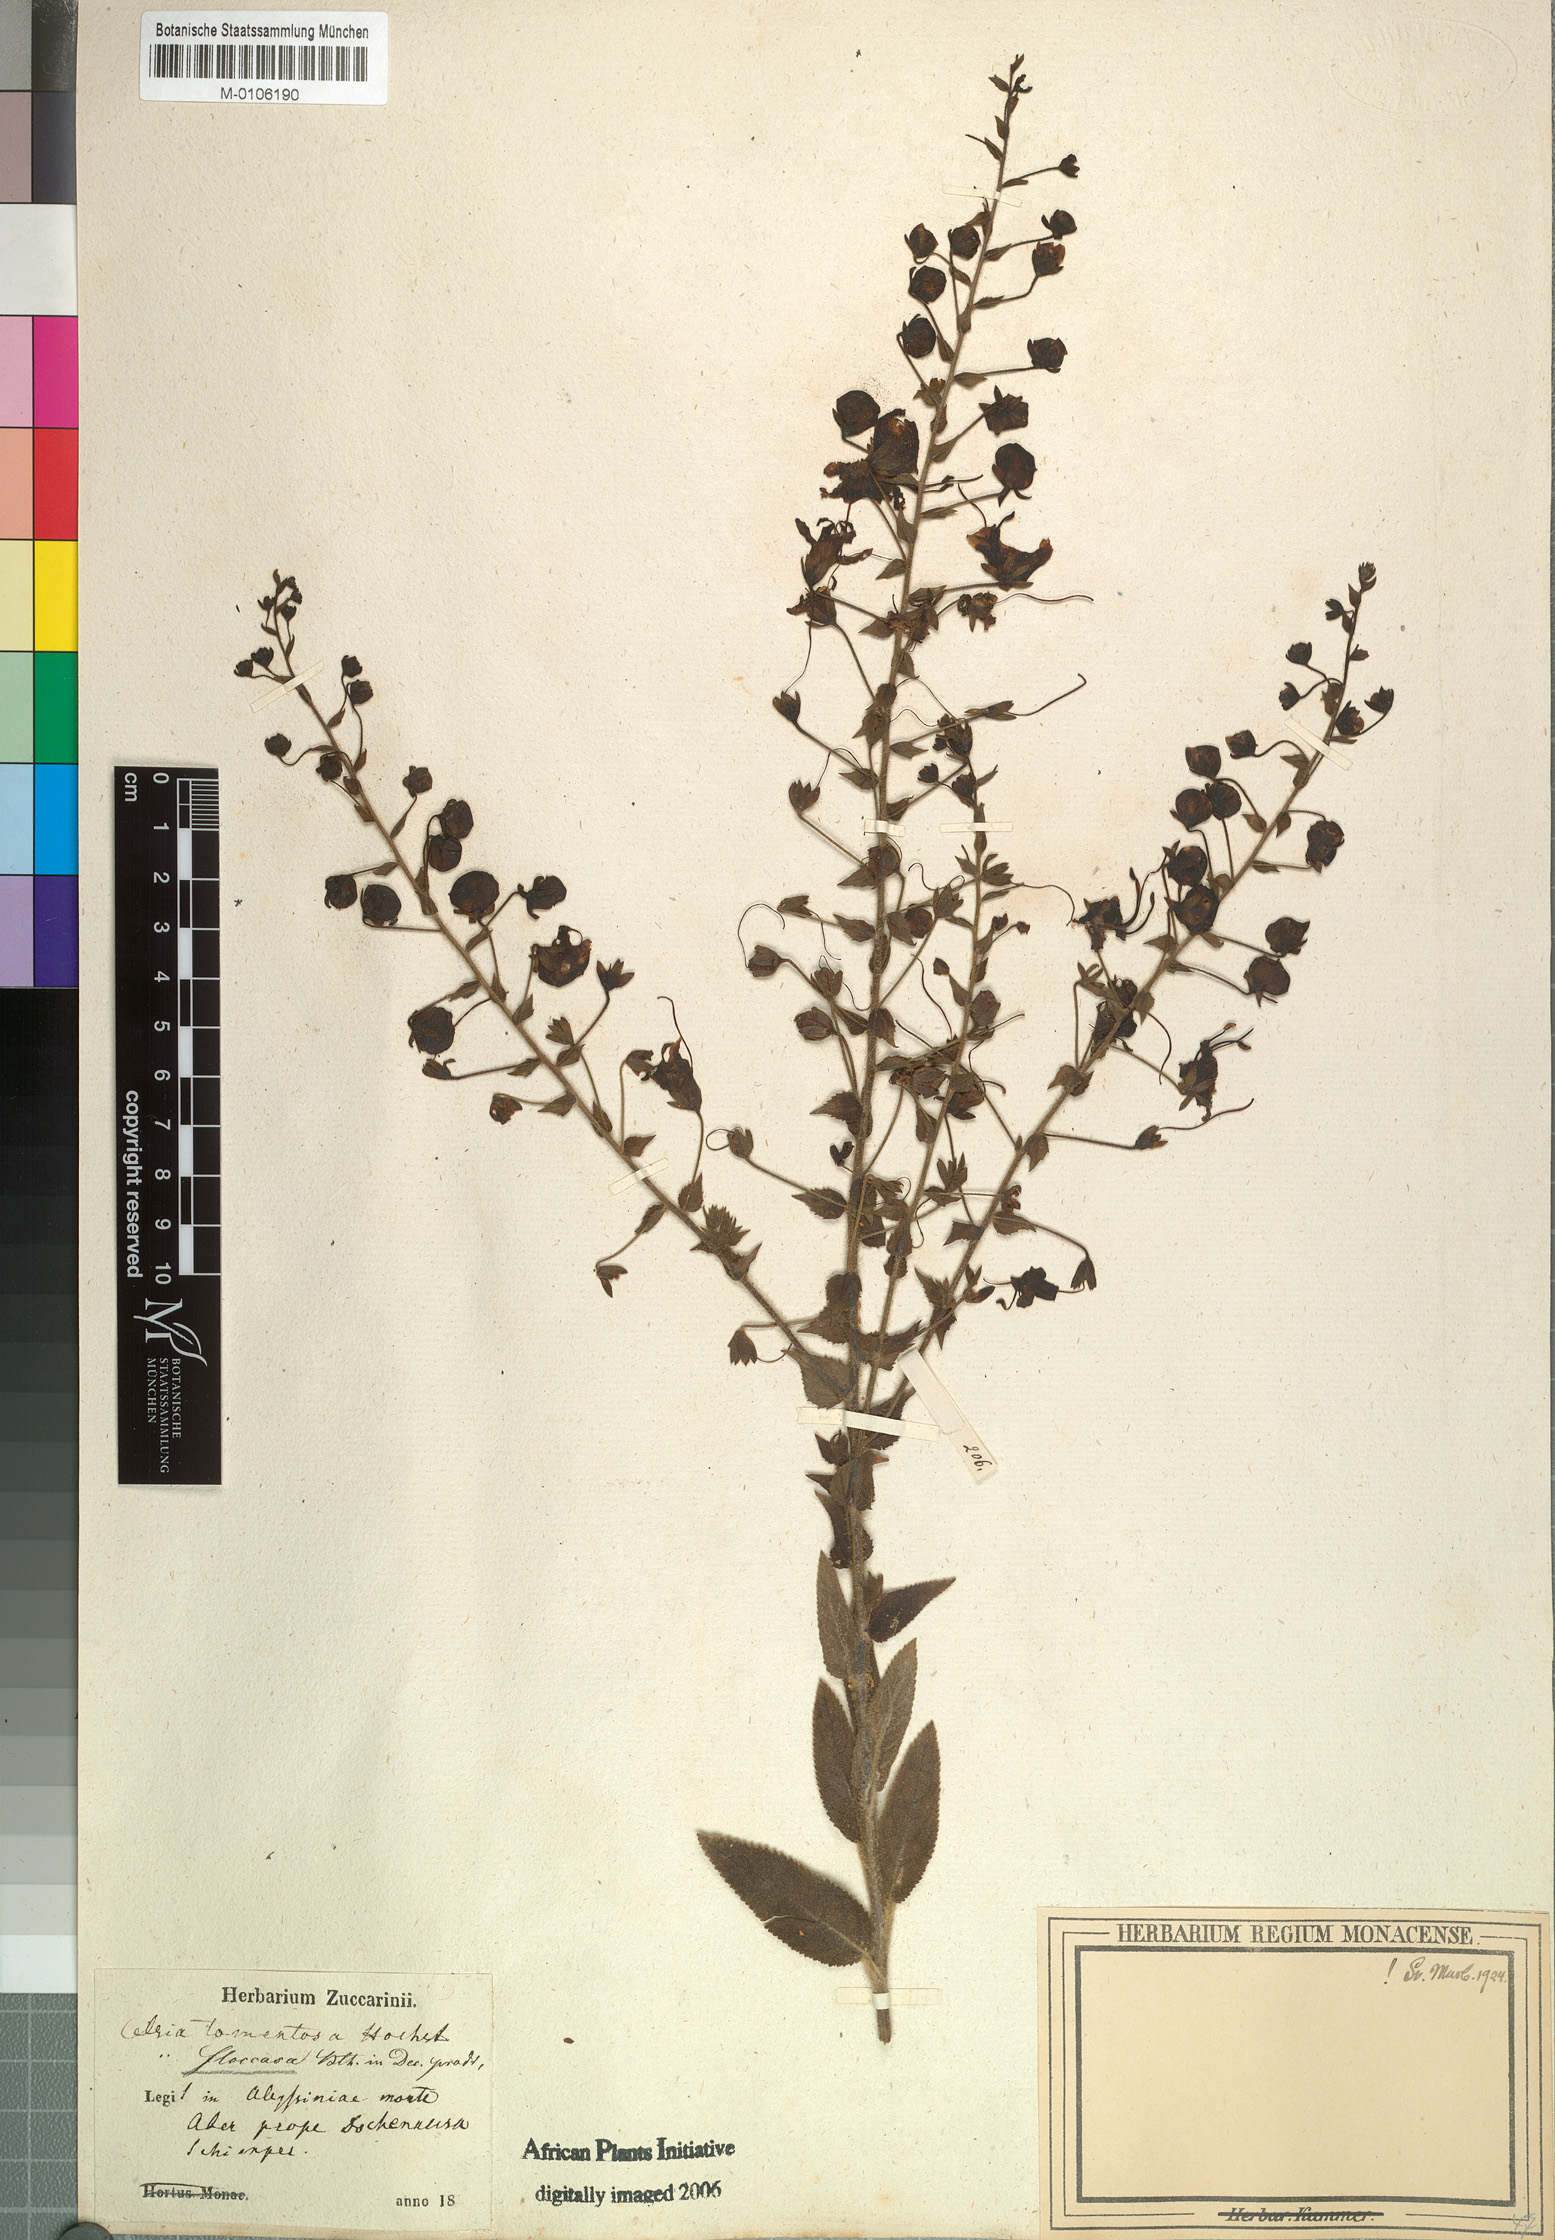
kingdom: Plantae
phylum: Tracheophyta
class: Magnoliopsida
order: Lamiales
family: Scrophulariaceae
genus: Verbascum
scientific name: Verbascum benthamianum
